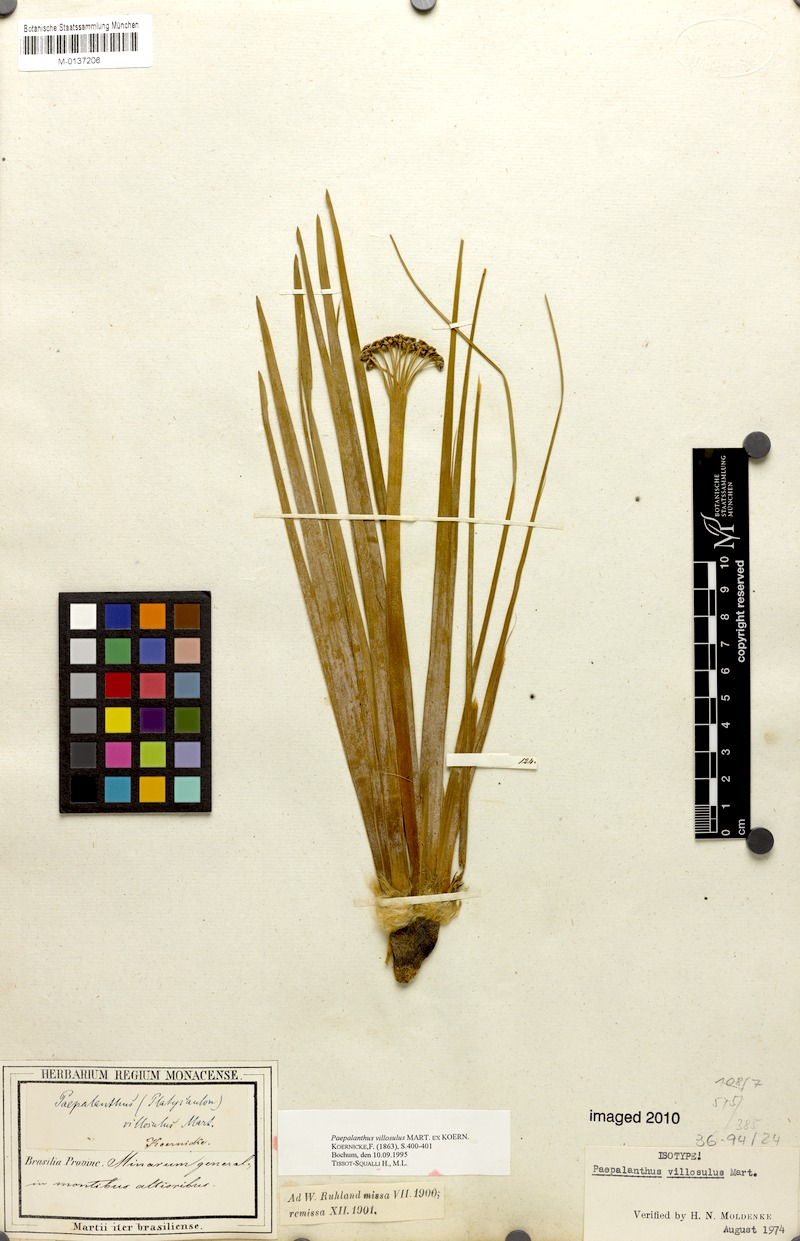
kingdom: Plantae
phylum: Tracheophyta
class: Liliopsida
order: Poales
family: Eriocaulaceae
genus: Paepalanthus
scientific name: Paepalanthus villosulus
